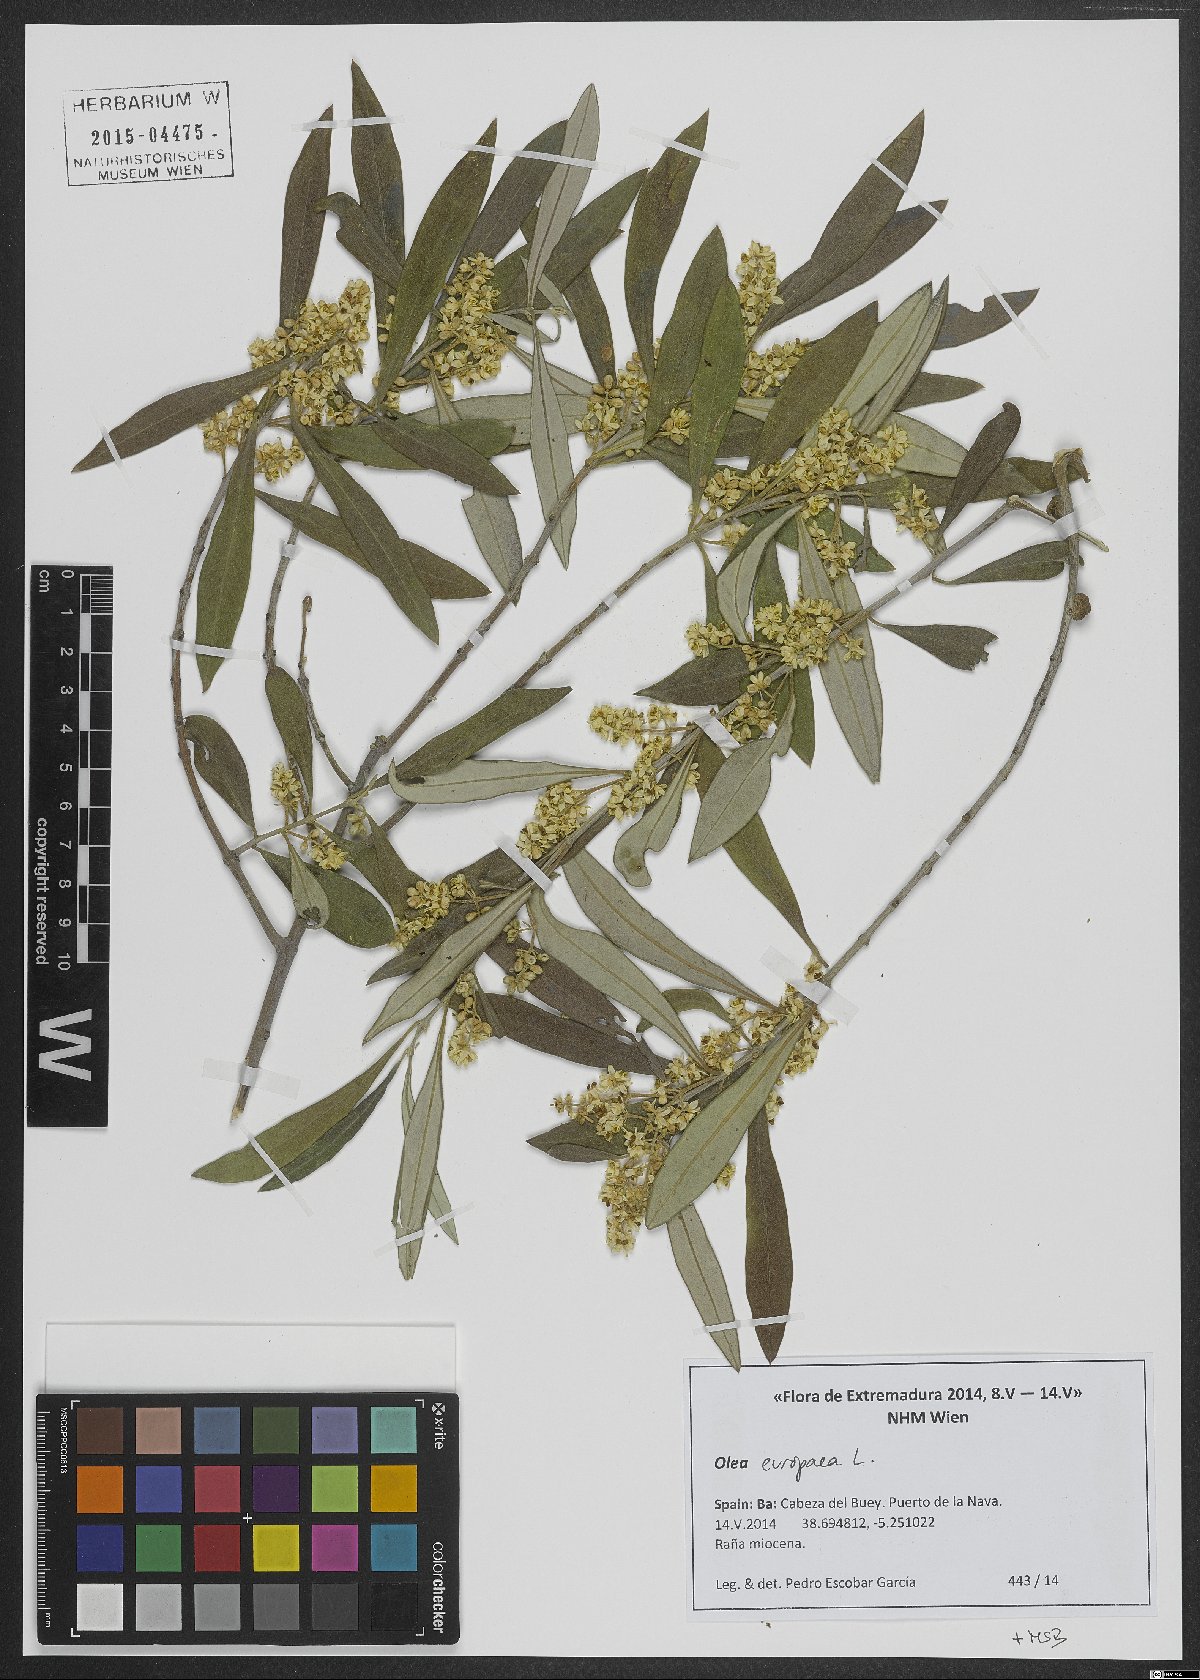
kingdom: Plantae
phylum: Tracheophyta
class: Magnoliopsida
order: Lamiales
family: Oleaceae
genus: Olea
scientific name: Olea europaea
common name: Olive
